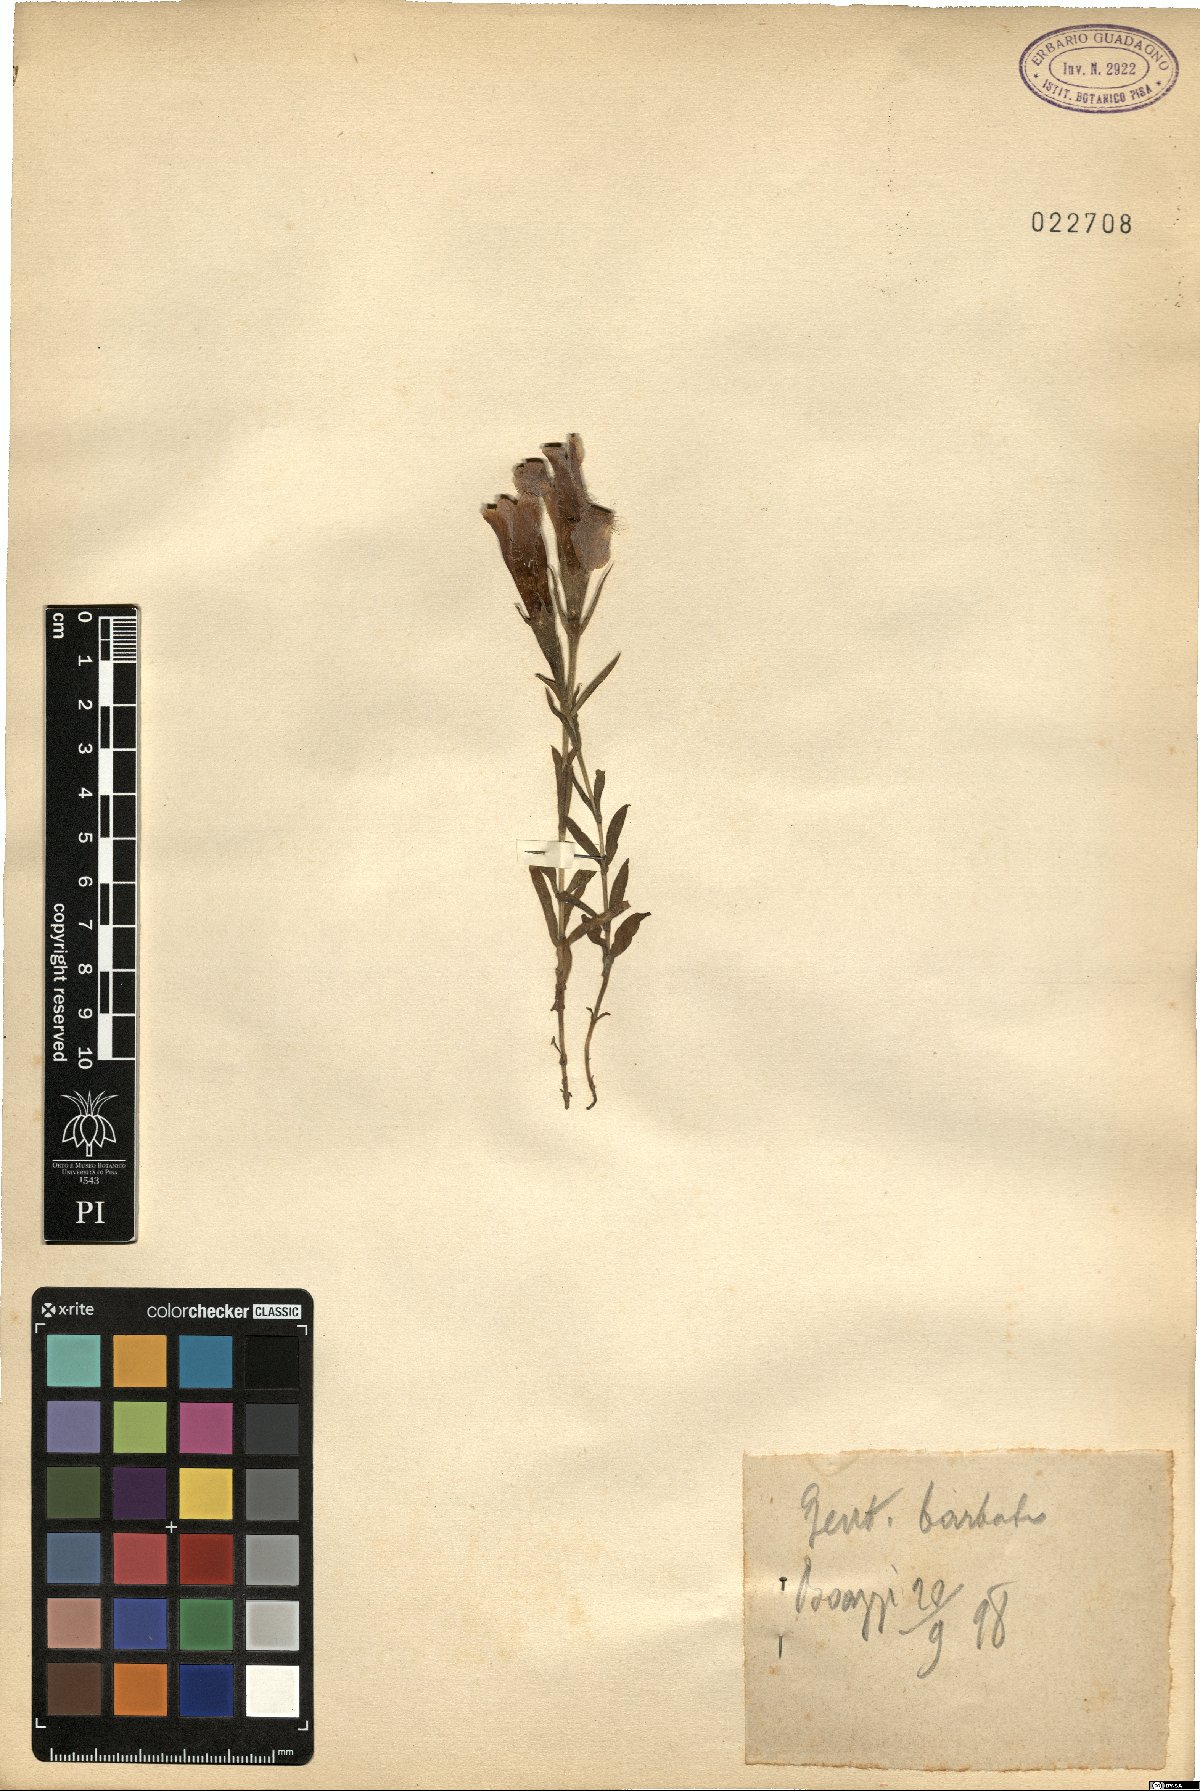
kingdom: Plantae
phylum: Tracheophyta
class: Magnoliopsida
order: Gentianales
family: Gentianaceae
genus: Gentianopsis
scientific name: Gentianopsis barbata
